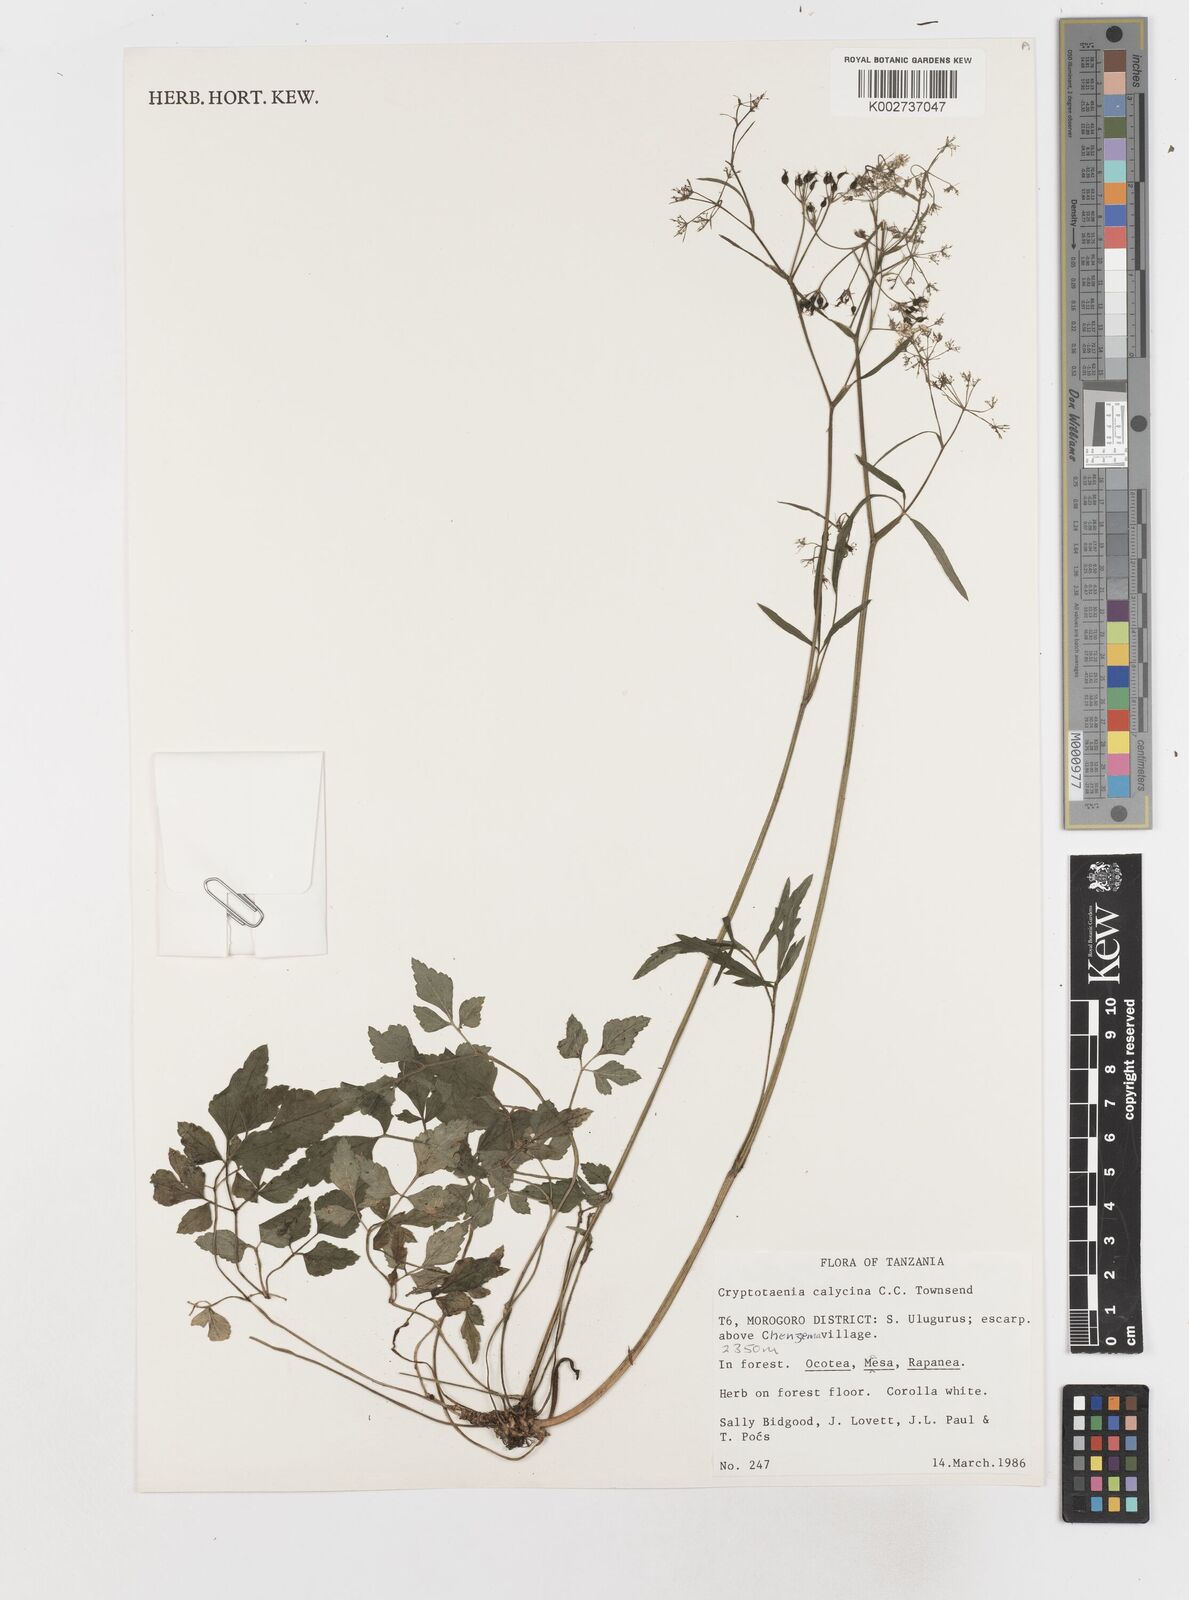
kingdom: Plantae
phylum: Tracheophyta
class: Magnoliopsida
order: Apiales
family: Apiaceae
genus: Cryptotaenia
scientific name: Cryptotaenia calycina
